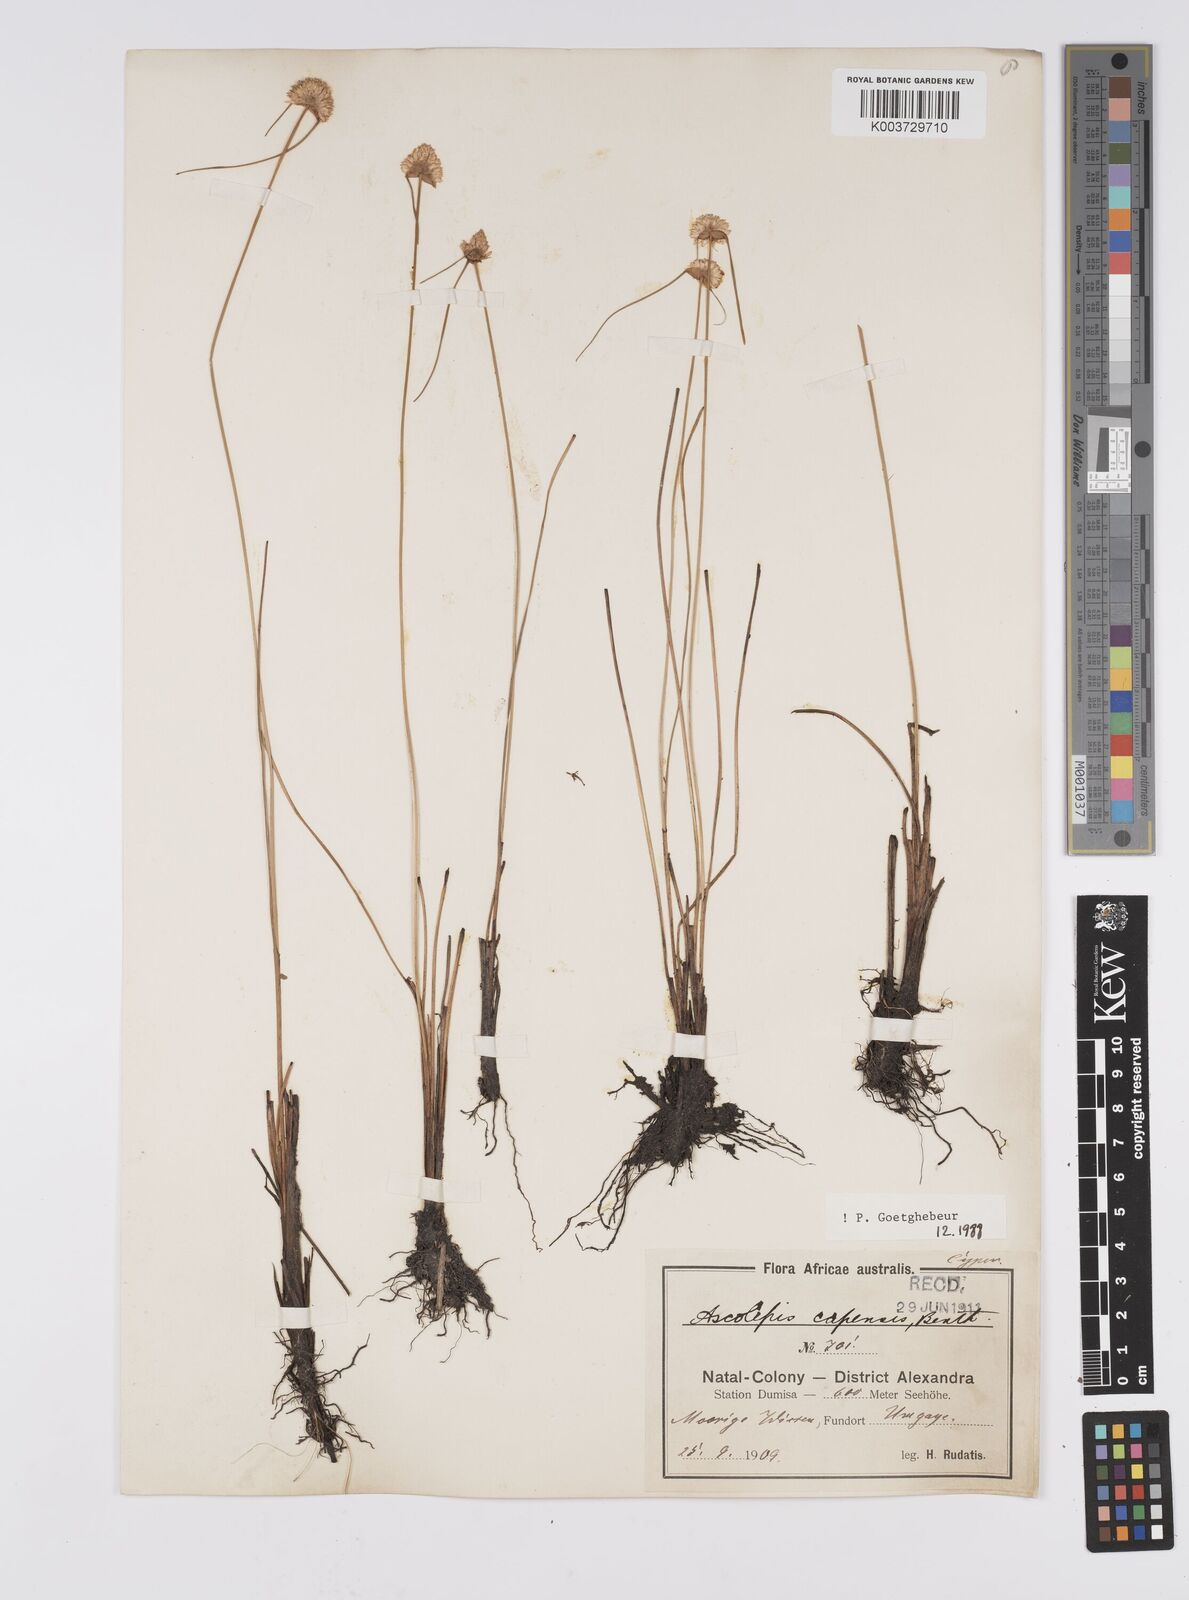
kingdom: Plantae
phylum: Tracheophyta
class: Liliopsida
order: Poales
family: Cyperaceae
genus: Cyperus
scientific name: Cyperus capensis
